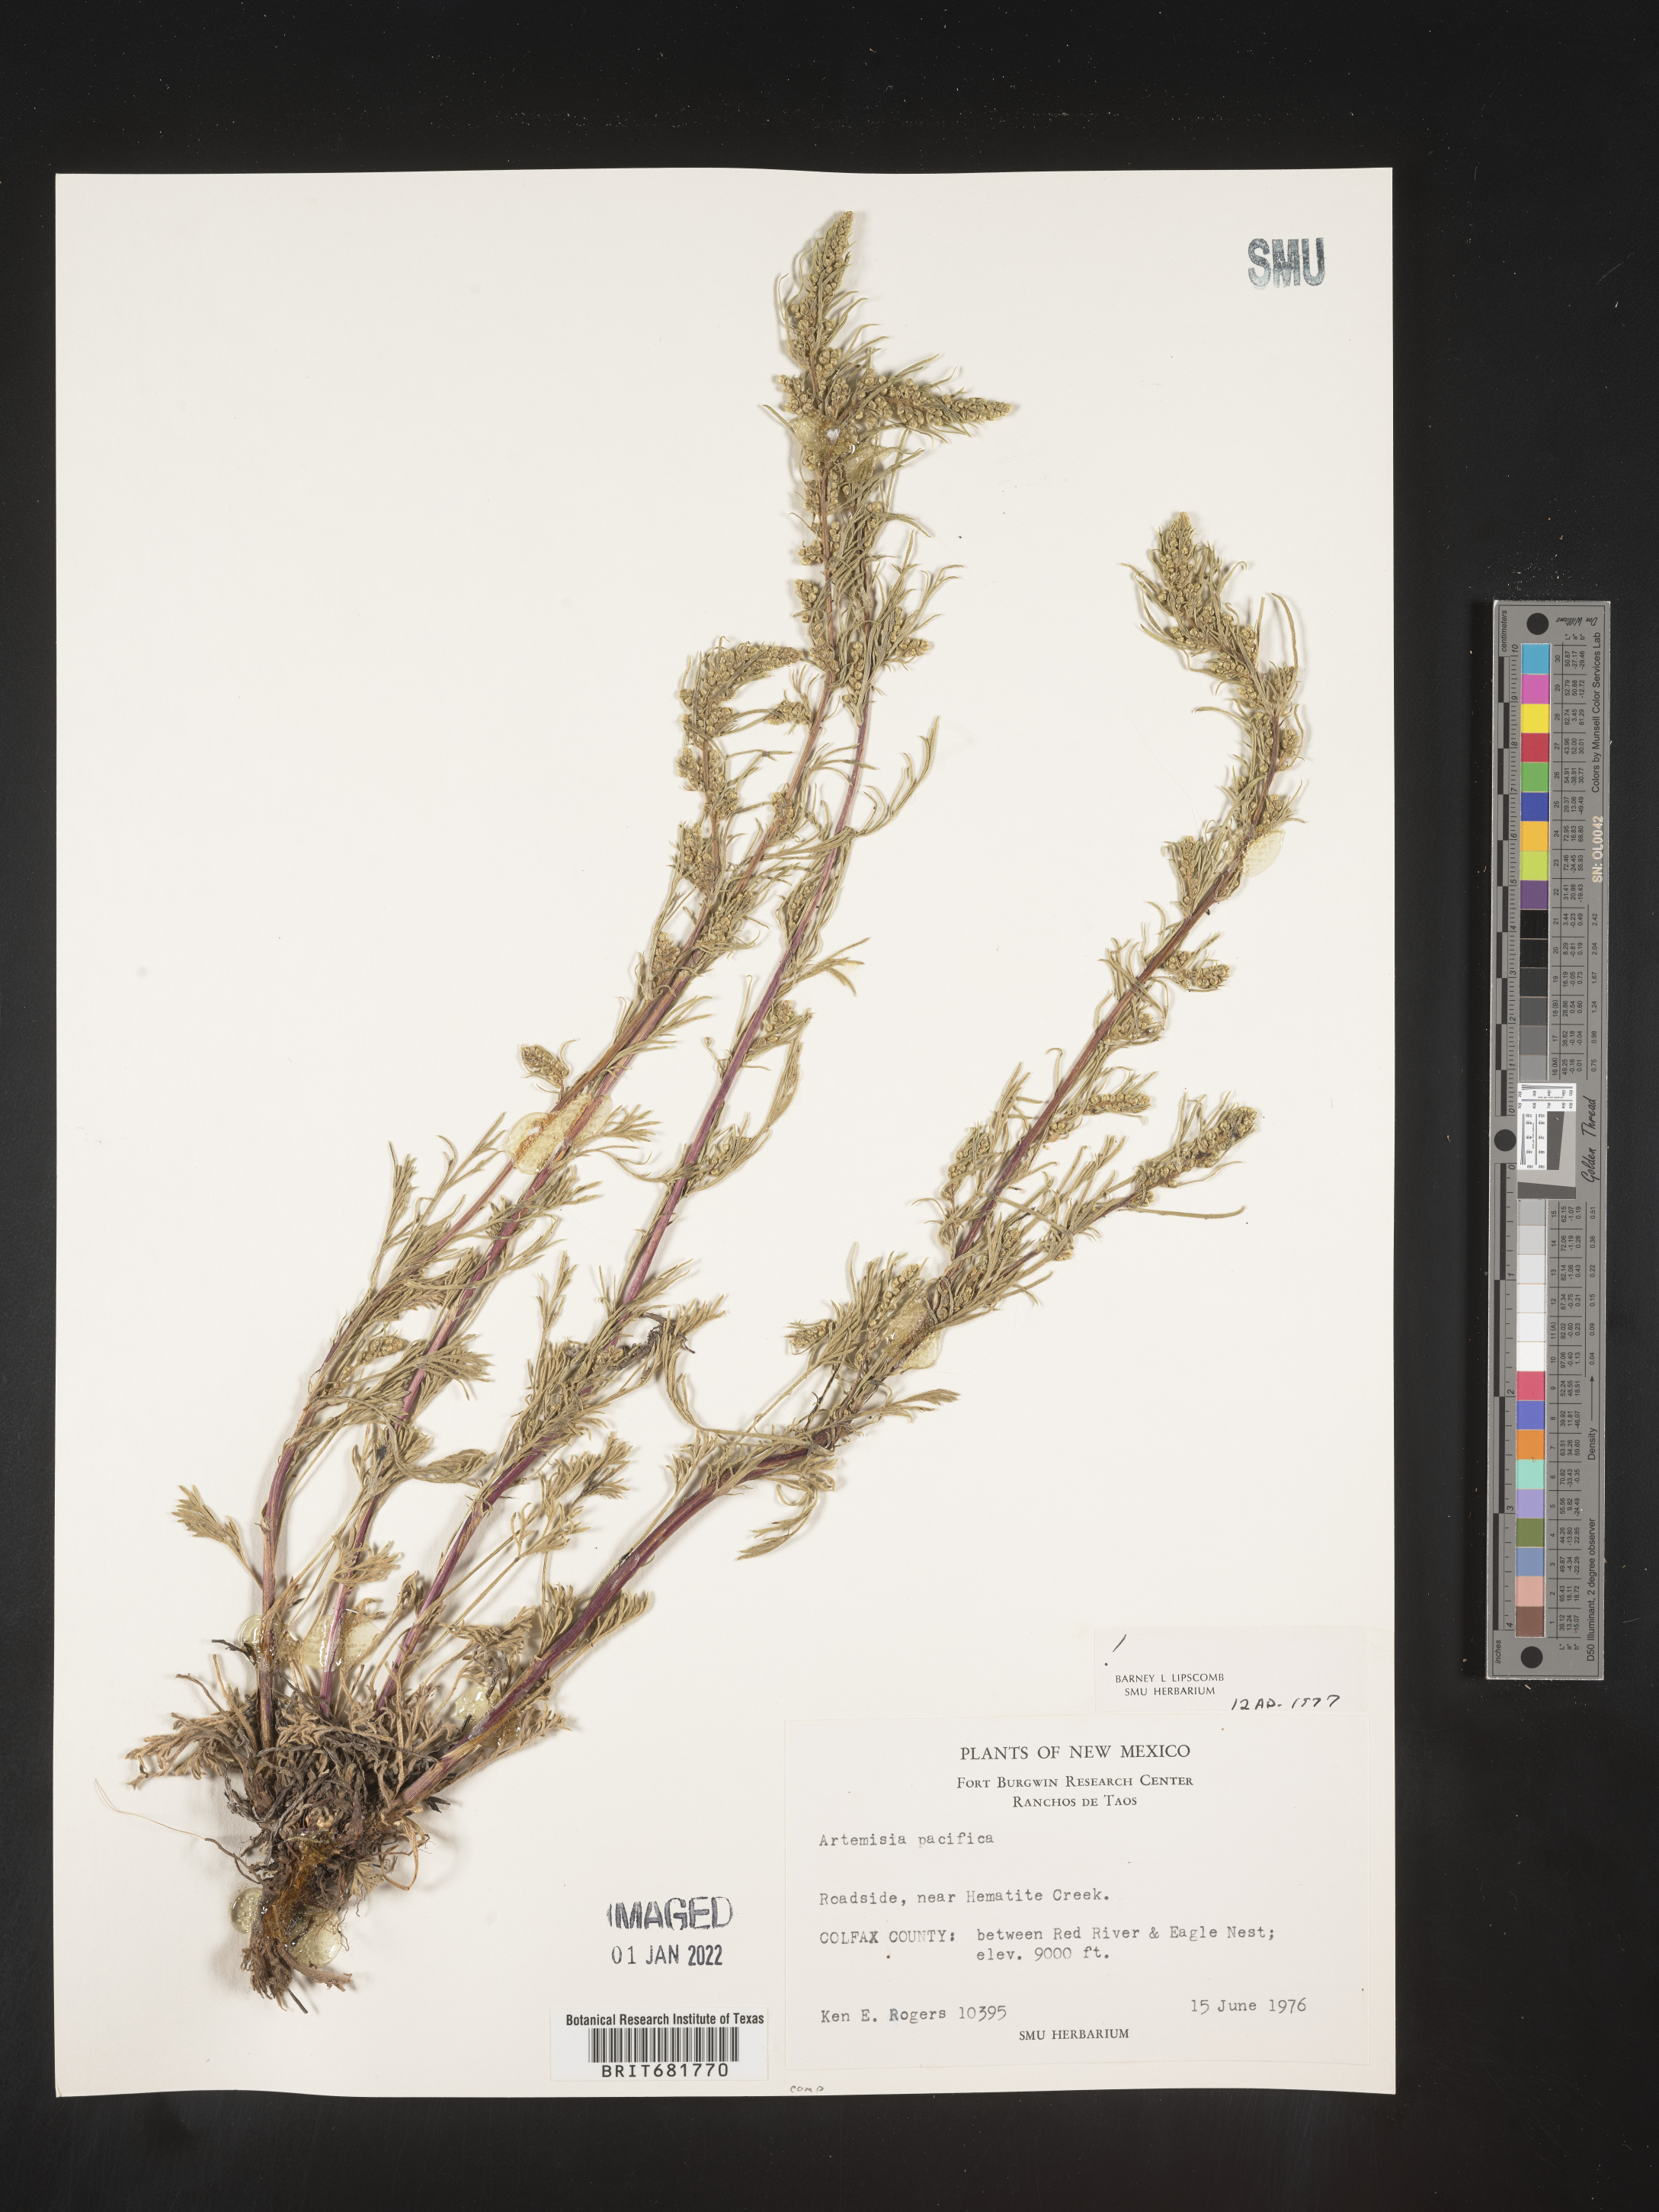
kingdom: Plantae
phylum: Tracheophyta
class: Magnoliopsida
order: Asterales
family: Asteraceae
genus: Artemisia
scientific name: Artemisia campestris
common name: Field wormwood
